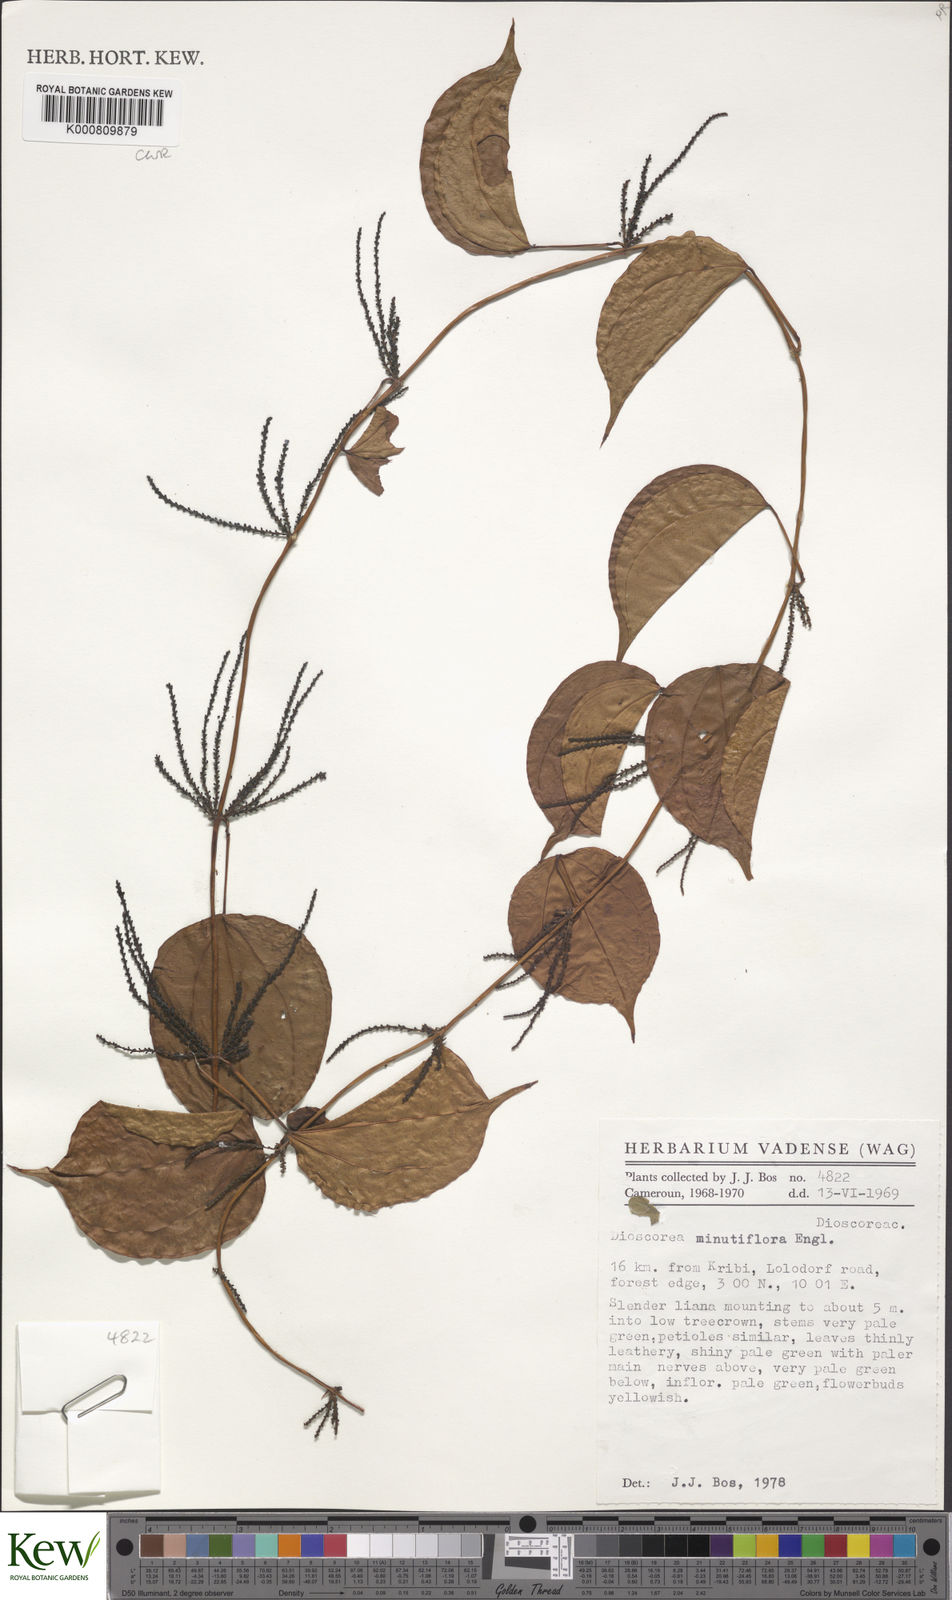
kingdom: Plantae
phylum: Tracheophyta
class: Liliopsida
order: Dioscoreales
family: Dioscoreaceae
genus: Dioscorea
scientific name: Dioscorea minutiflora
